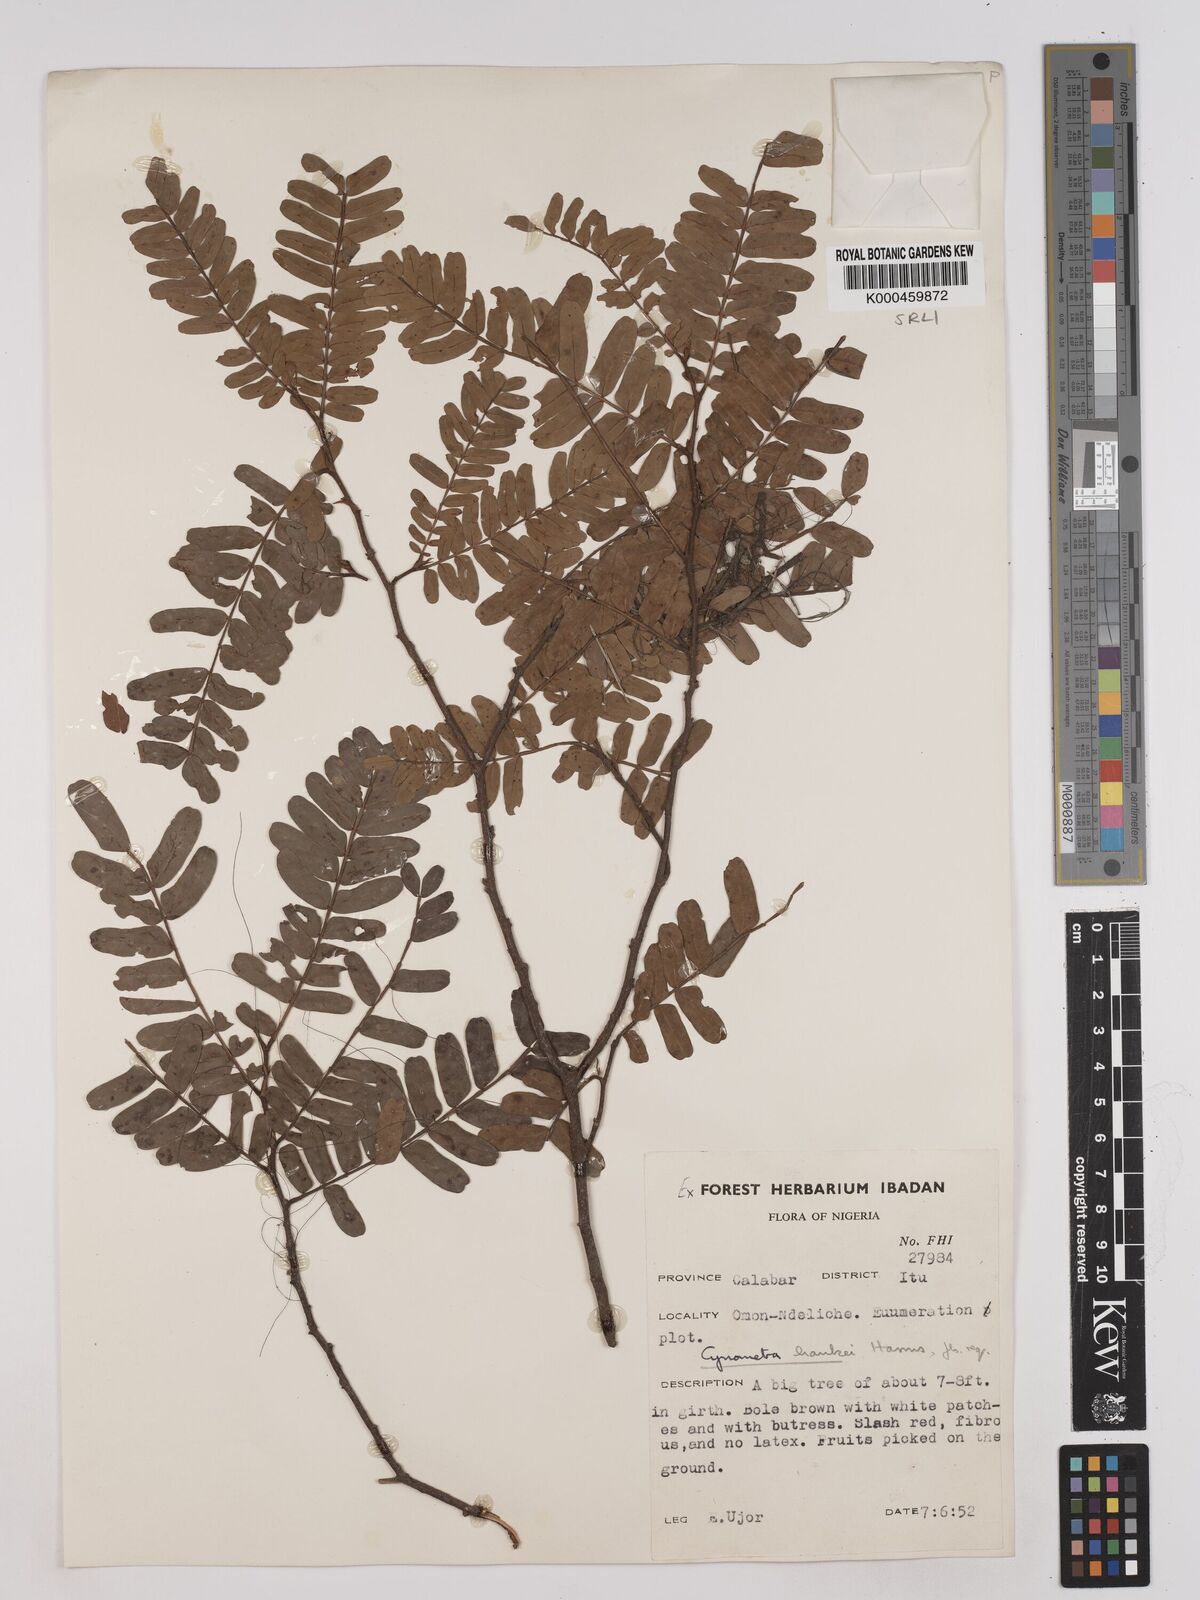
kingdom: Plantae
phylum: Tracheophyta
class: Magnoliopsida
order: Fabales
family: Fabaceae
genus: Cynometra
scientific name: Cynometra hankei
